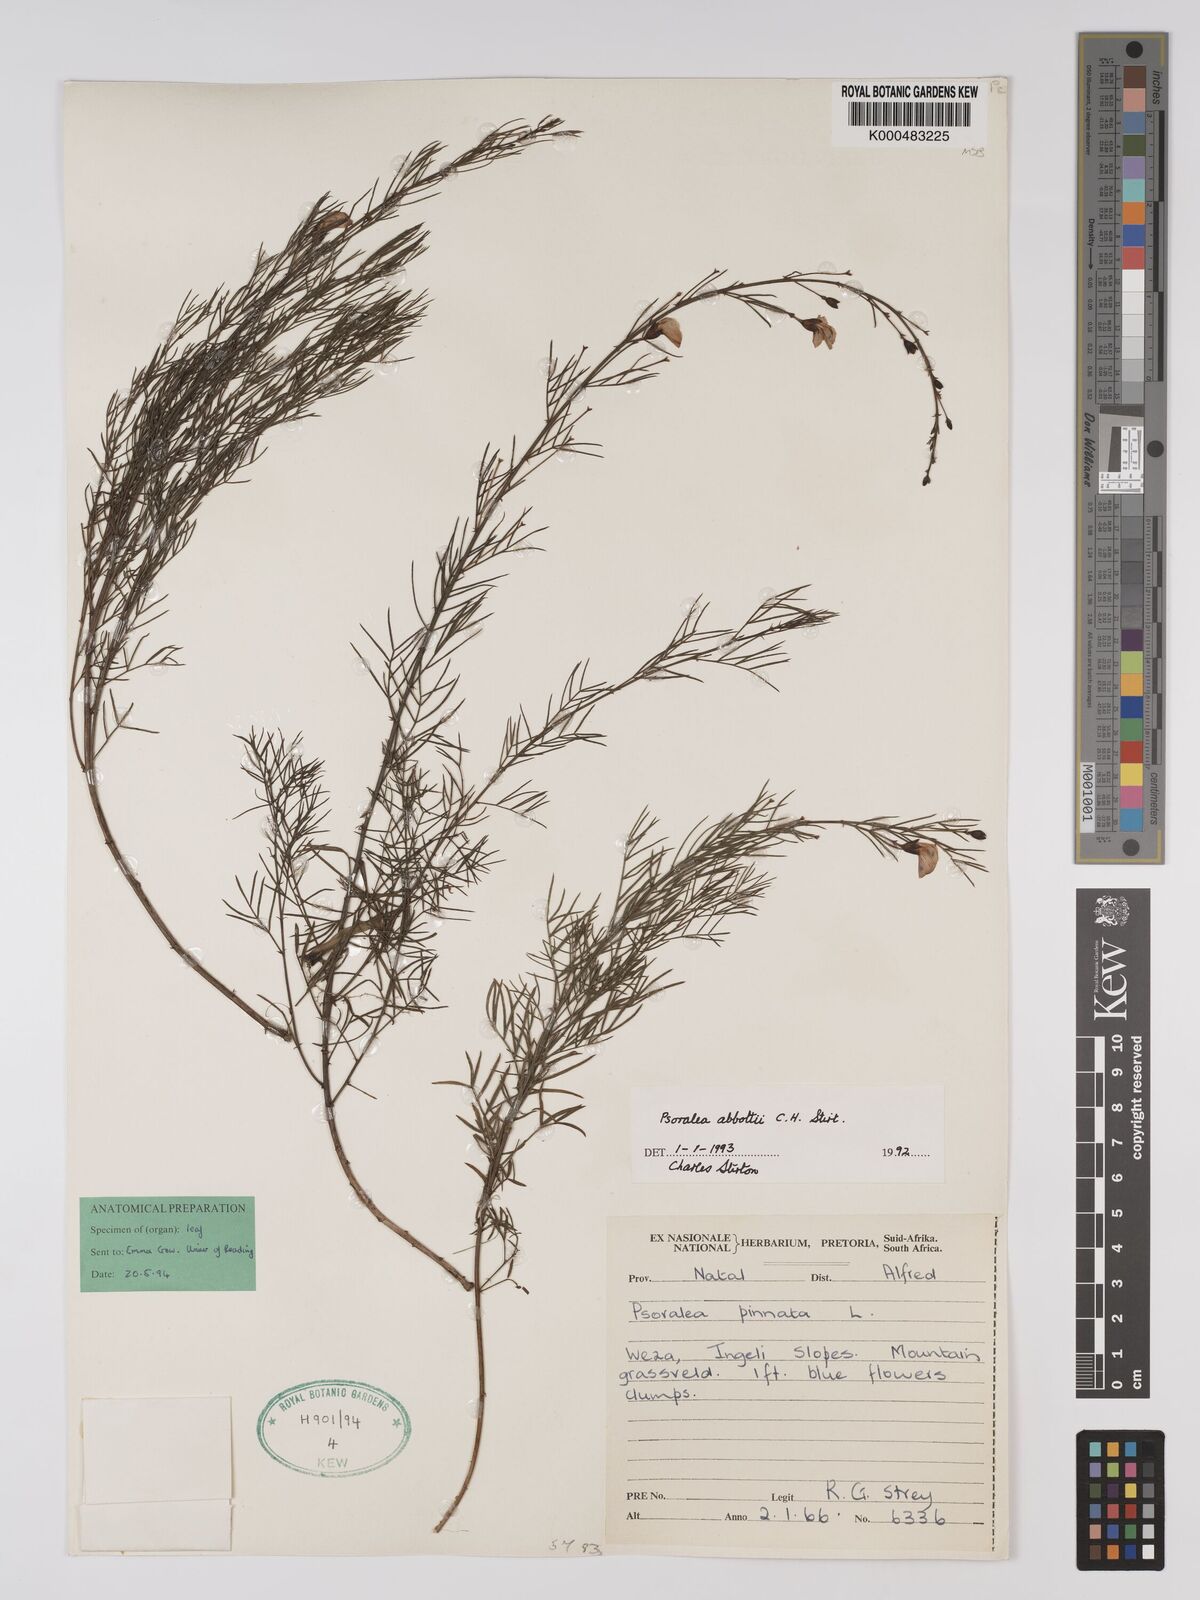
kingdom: Plantae
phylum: Tracheophyta
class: Magnoliopsida
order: Fabales
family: Fabaceae
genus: Psoralea
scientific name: Psoralea abbottii
